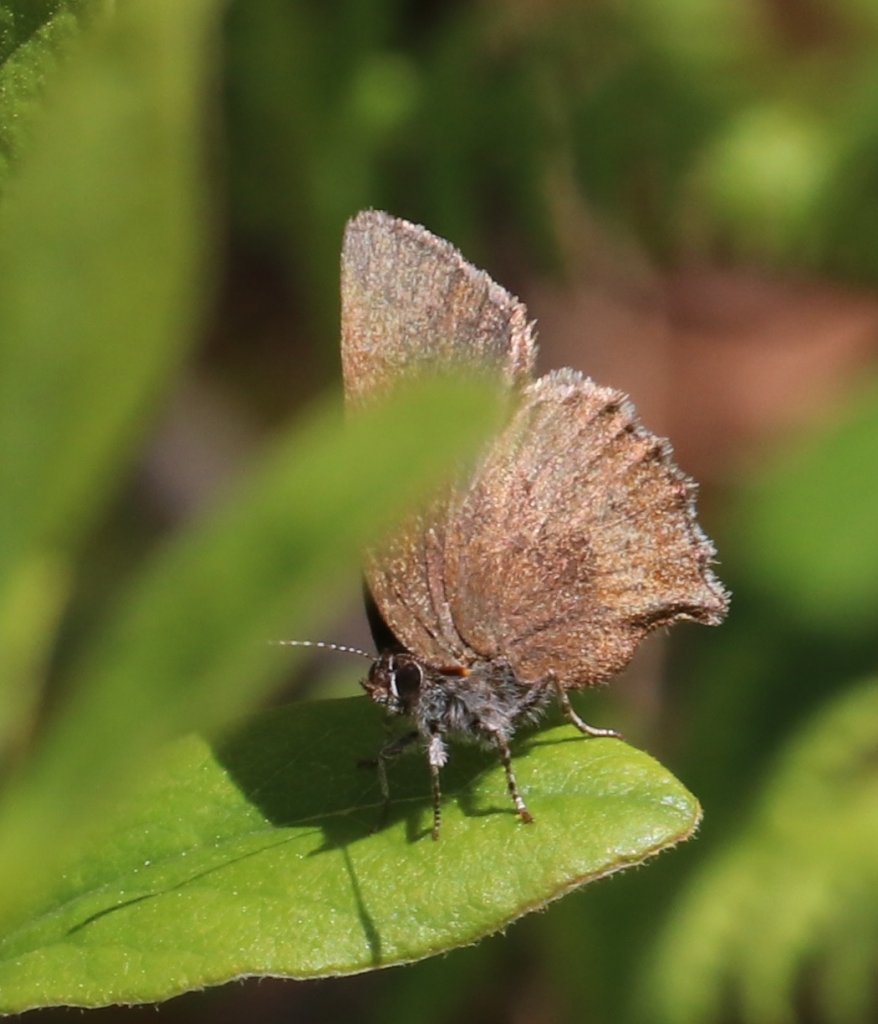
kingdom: Animalia
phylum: Arthropoda
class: Insecta
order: Lepidoptera
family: Lycaenidae
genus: Incisalia
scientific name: Incisalia irioides
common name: Brown Elfin
